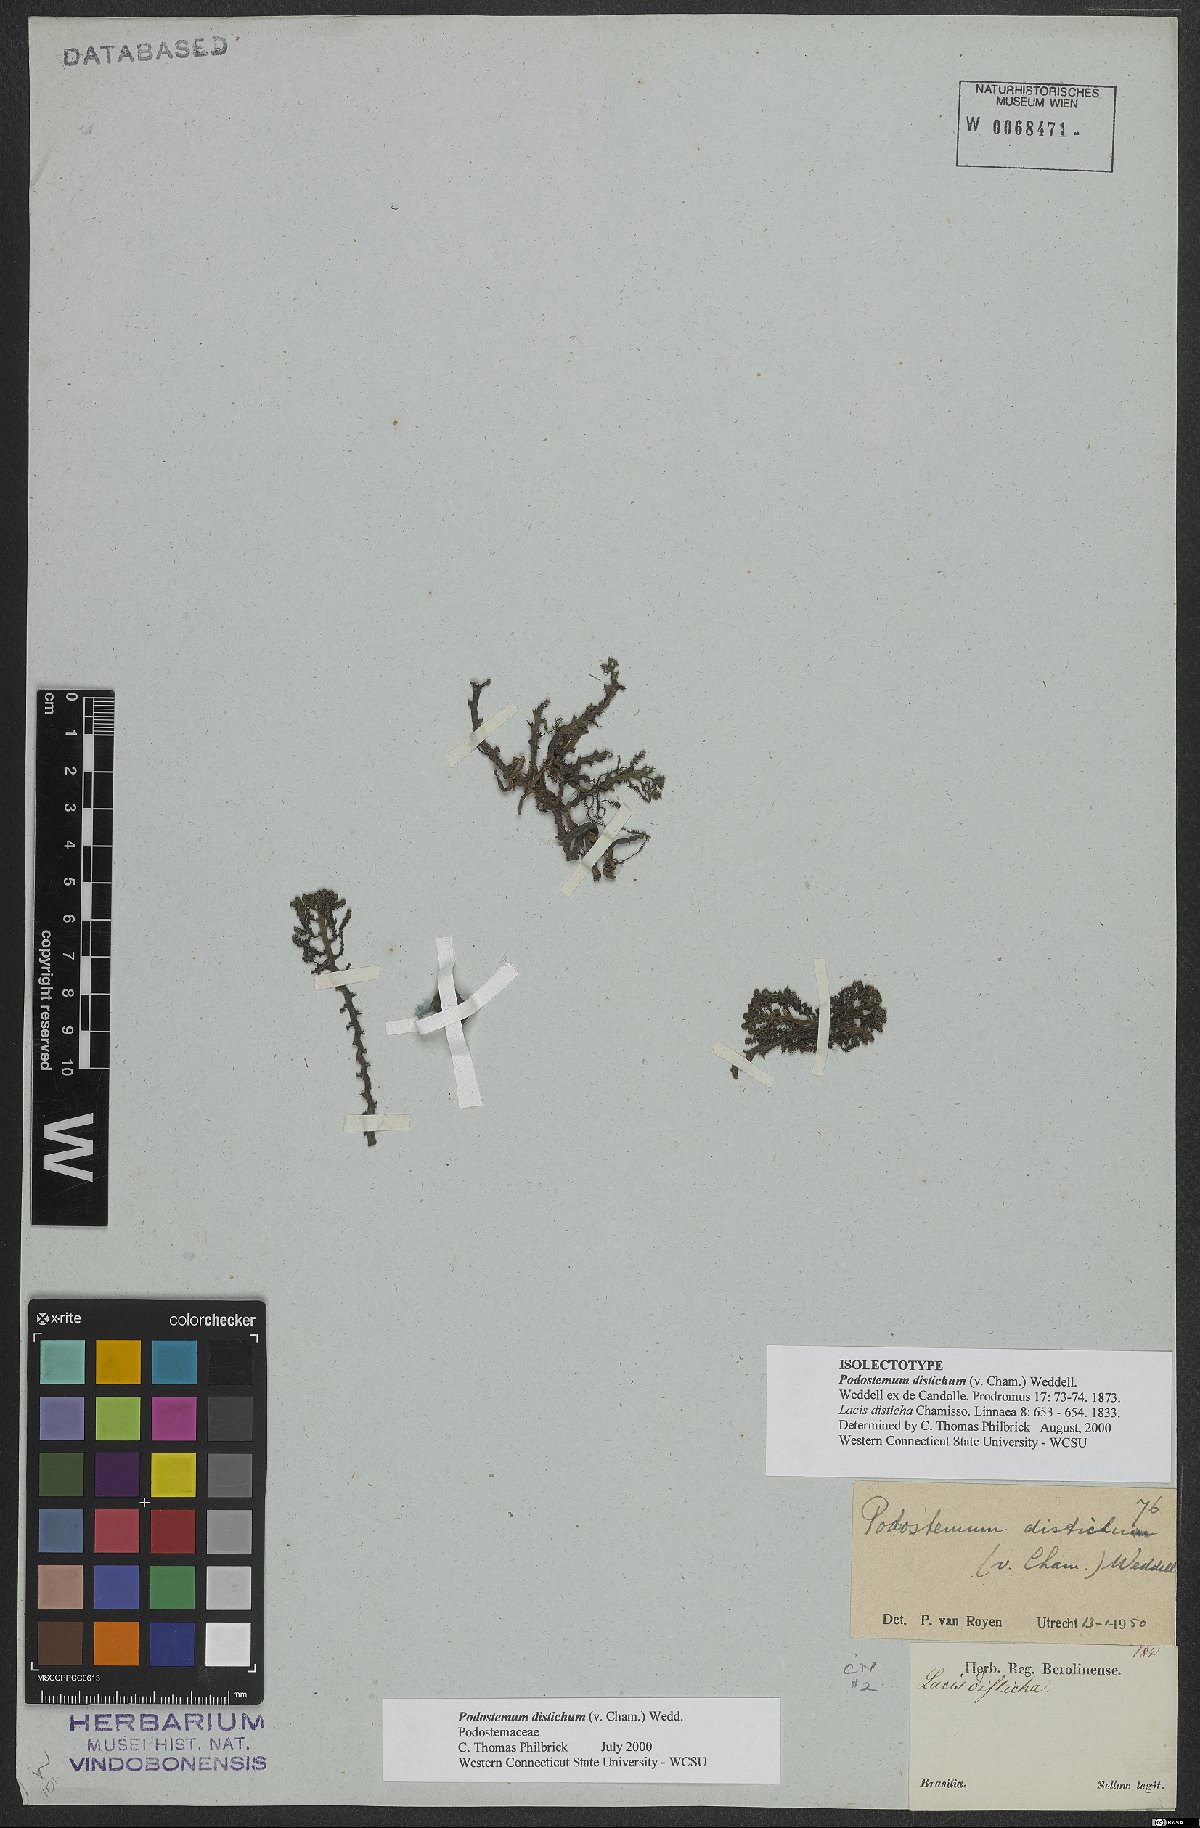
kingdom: Plantae
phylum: Tracheophyta
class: Magnoliopsida
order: Malpighiales
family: Podostemaceae
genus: Podostemum
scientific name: Podostemum distichum
